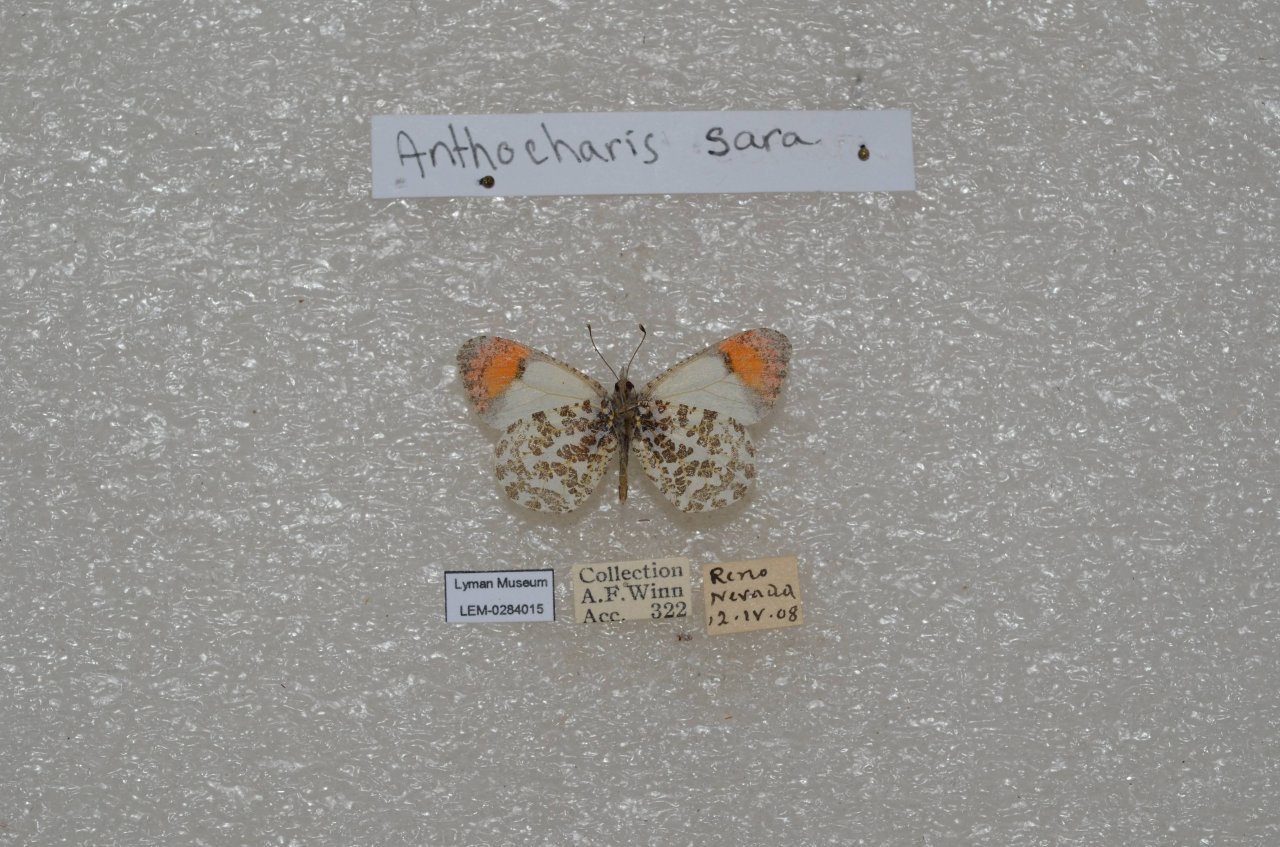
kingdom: Animalia
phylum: Arthropoda
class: Insecta
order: Lepidoptera
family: Pieridae
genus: Anthocharis
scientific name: Anthocharis sara
